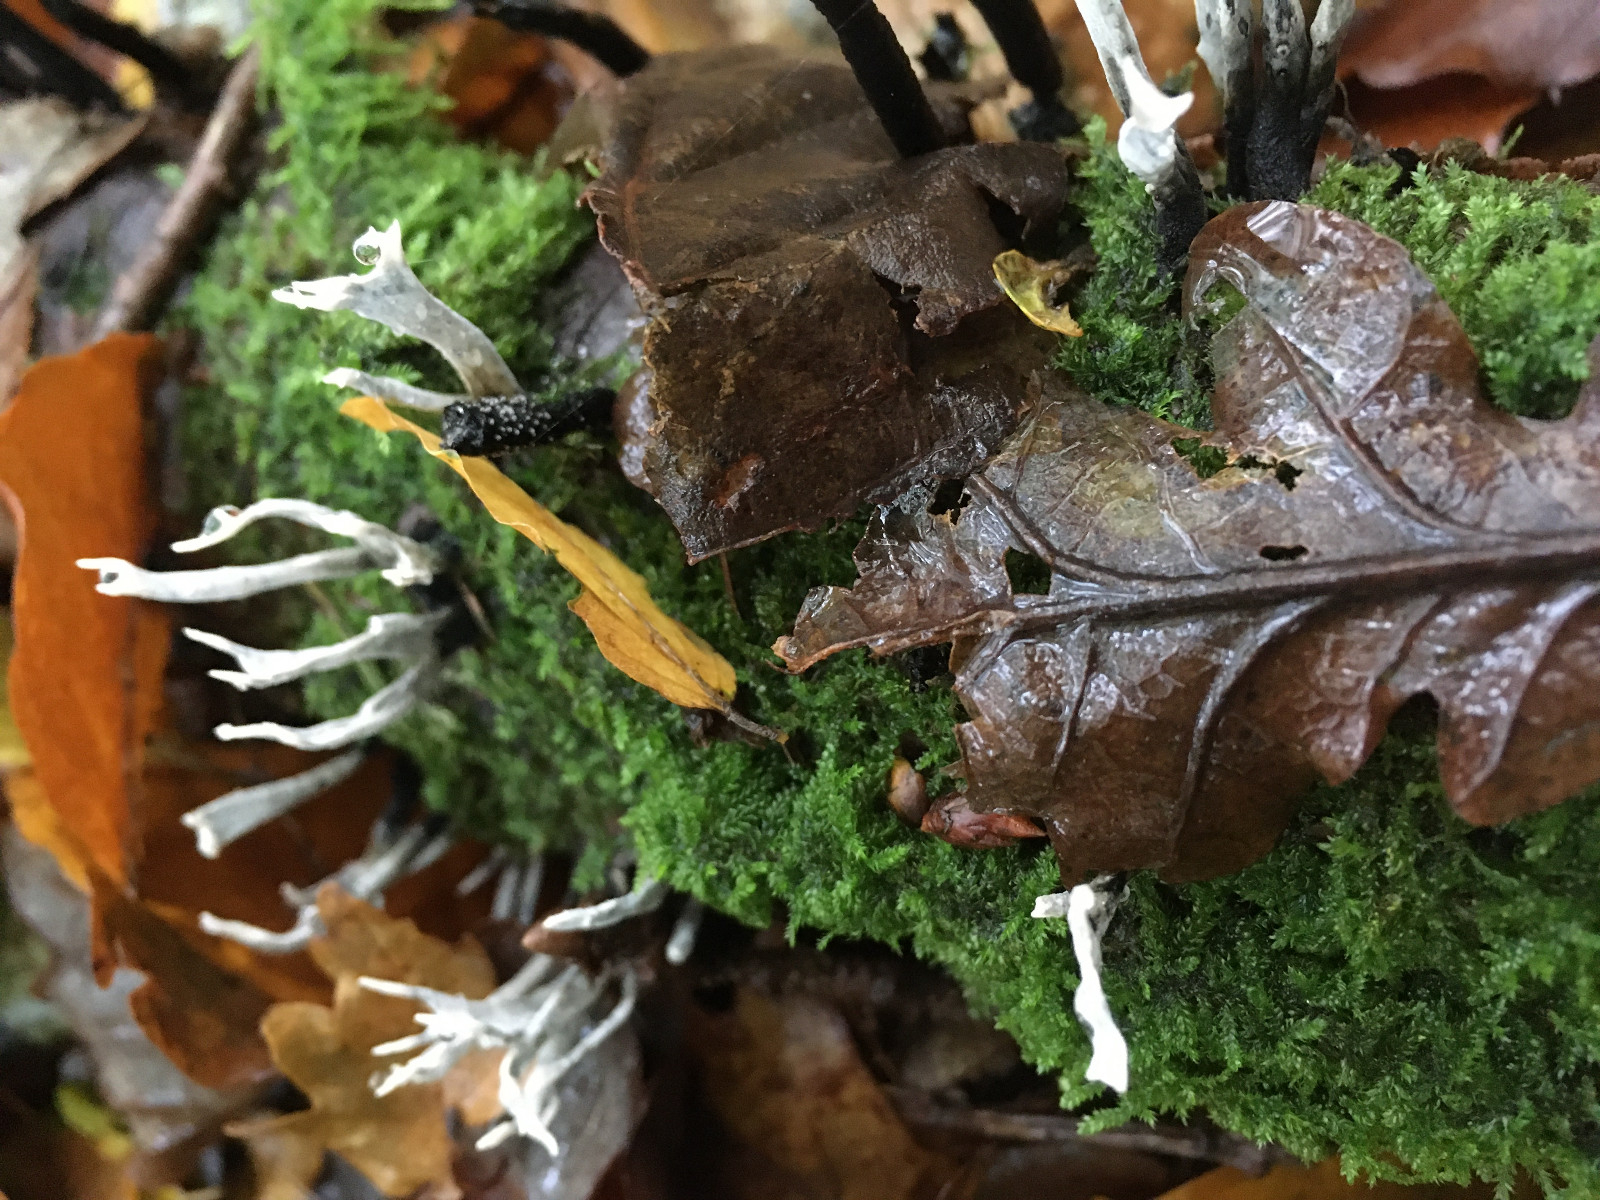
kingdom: Fungi
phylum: Ascomycota
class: Sordariomycetes
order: Xylariales
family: Xylariaceae
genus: Xylaria
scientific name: Xylaria hypoxylon
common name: grenet stødsvamp
